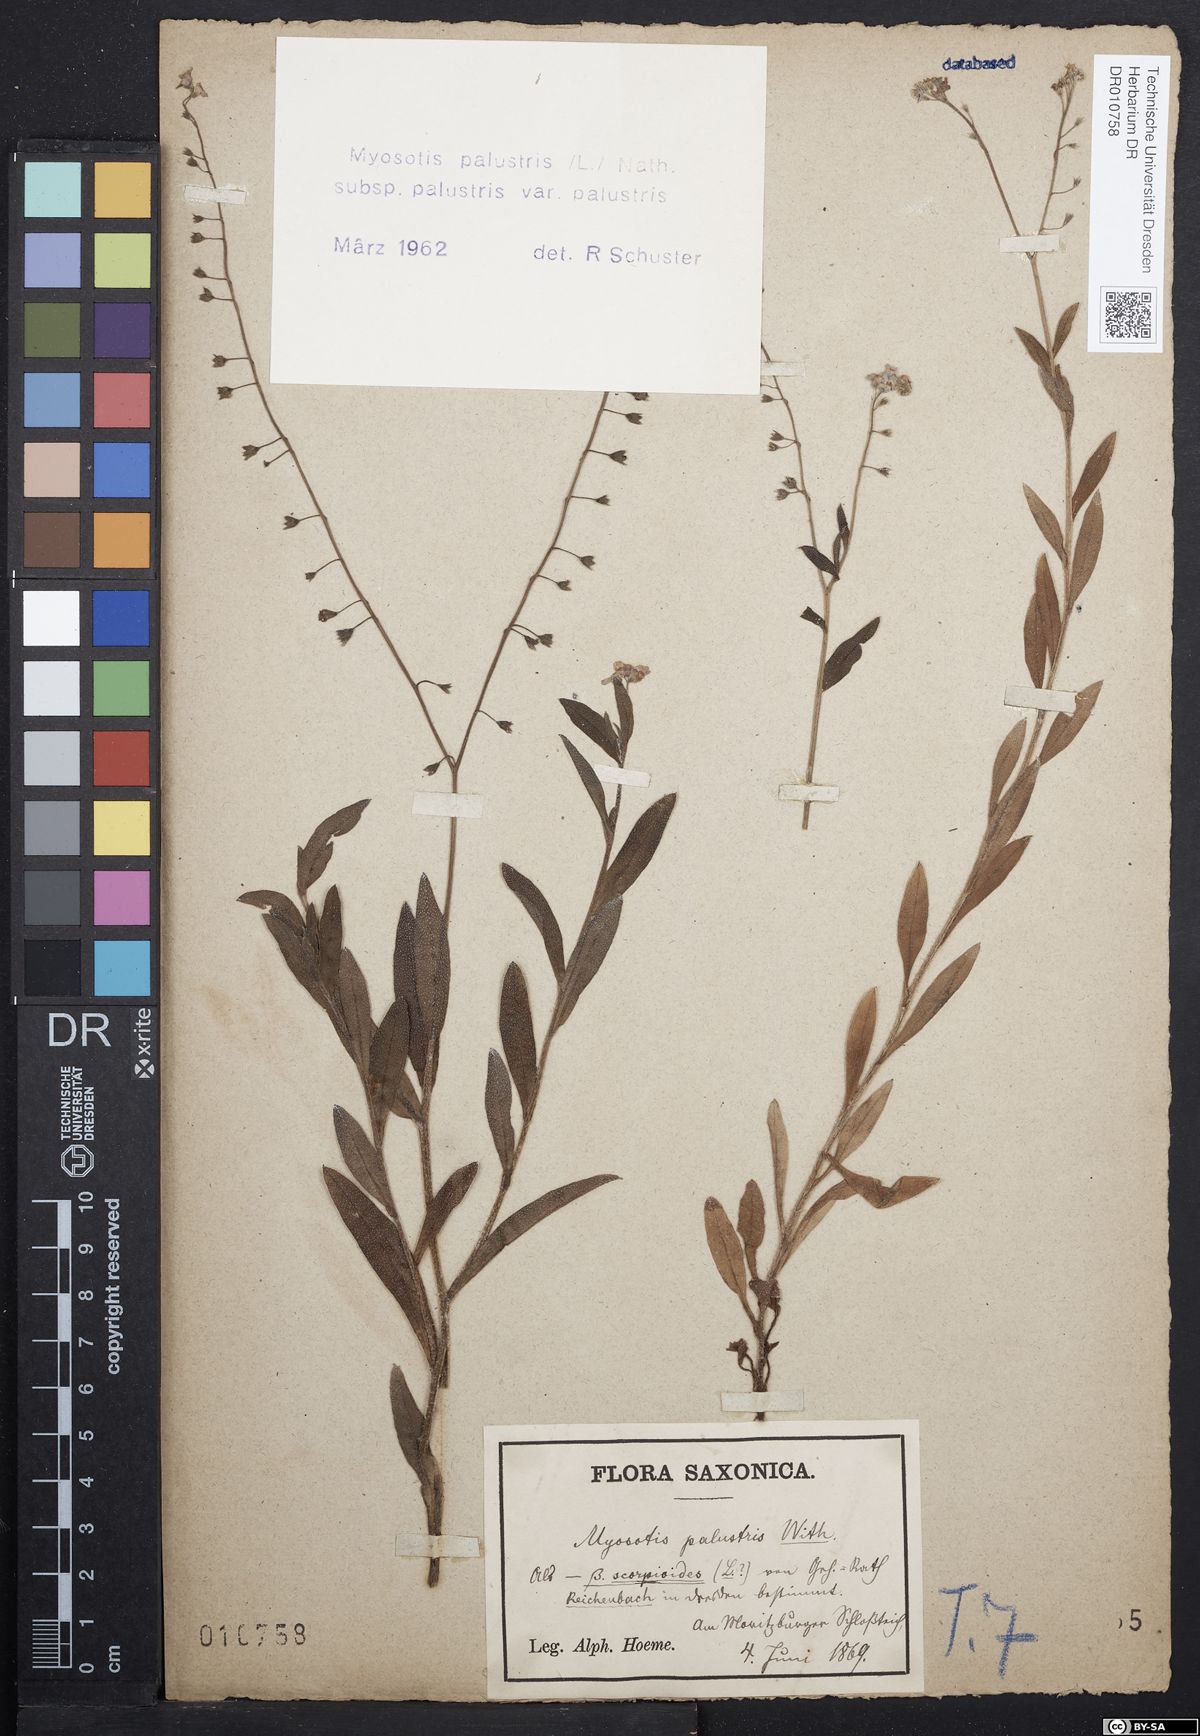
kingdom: Plantae
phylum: Tracheophyta
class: Magnoliopsida
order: Boraginales
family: Boraginaceae
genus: Myosotis
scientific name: Myosotis scorpioides
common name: Water forget-me-not
